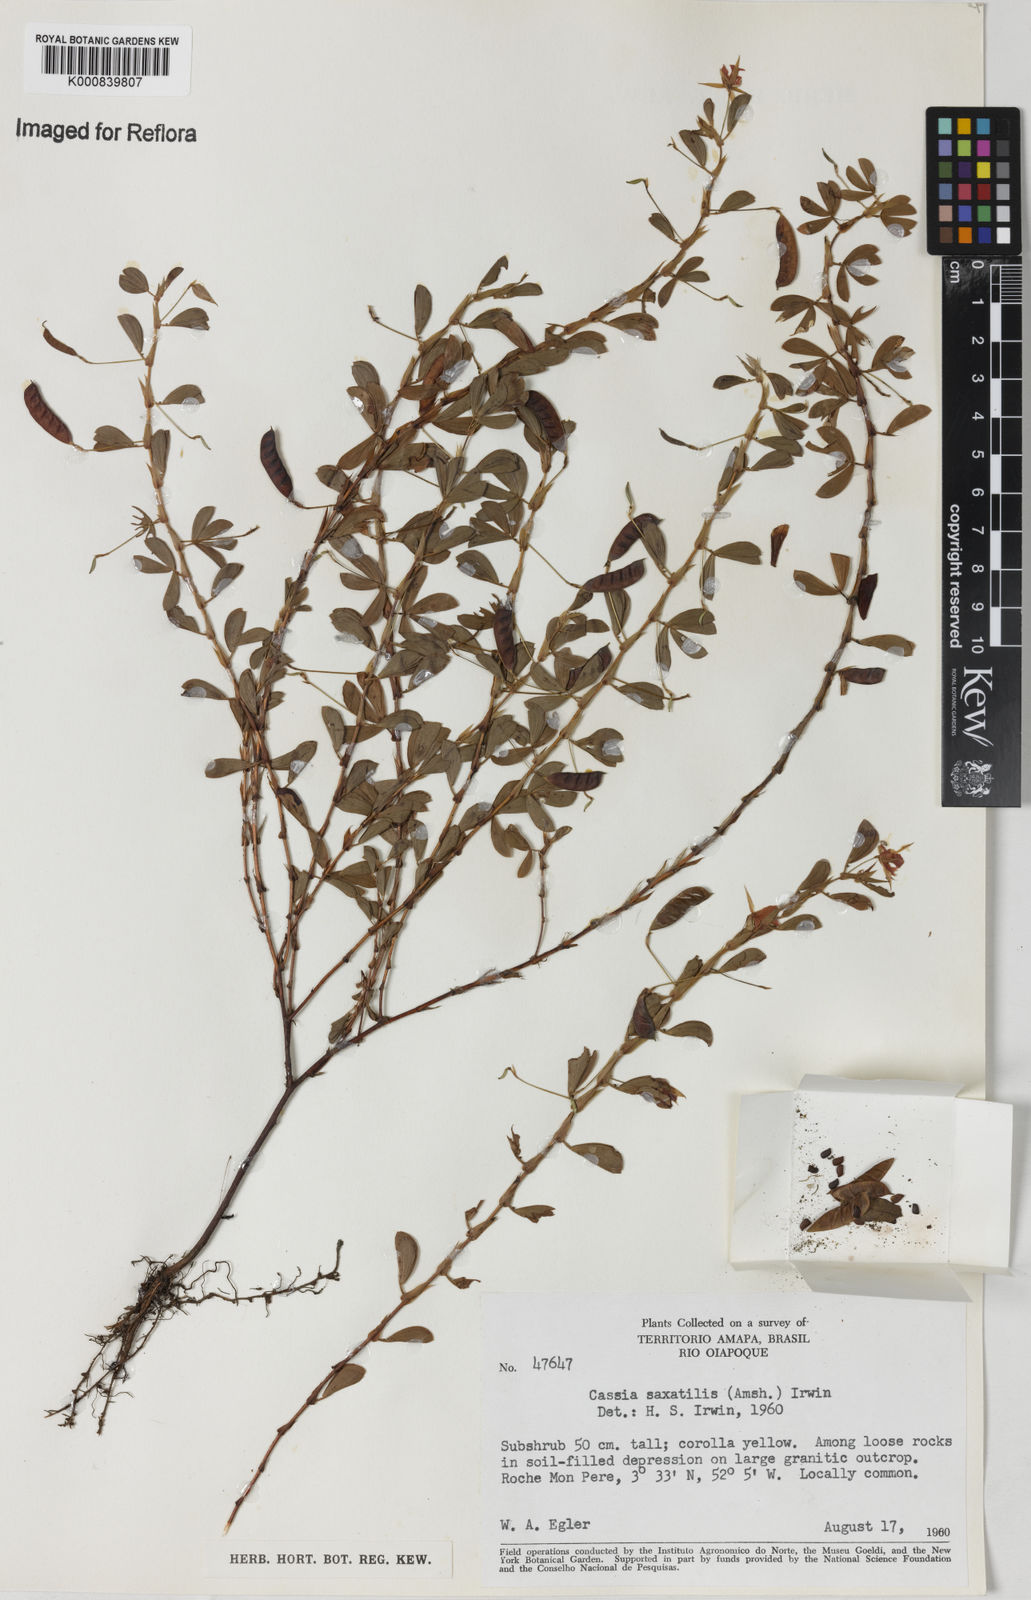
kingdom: Plantae
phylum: Tracheophyta
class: Magnoliopsida
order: Fabales
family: Fabaceae
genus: Chamaecrista
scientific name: Chamaecrista desvauxii
